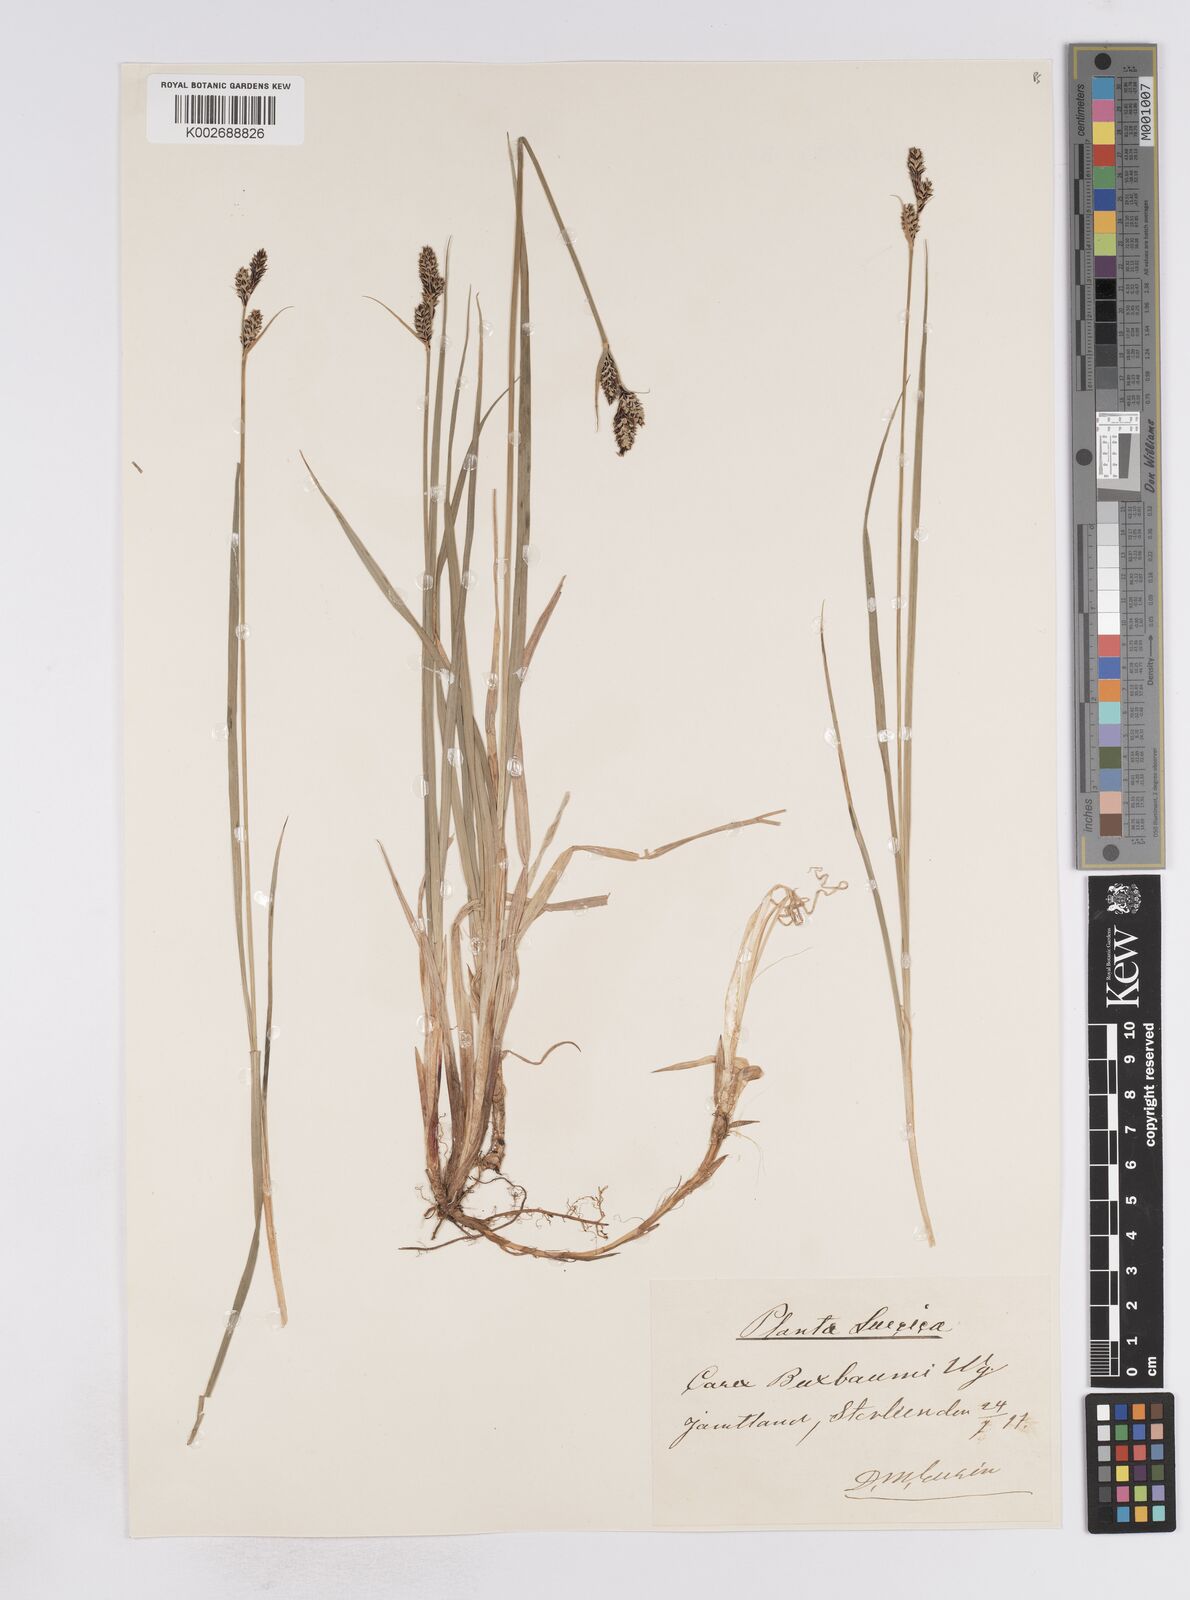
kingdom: Plantae
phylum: Tracheophyta
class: Liliopsida
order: Poales
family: Cyperaceae
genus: Carex
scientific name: Carex buxbaumii
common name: Club sedge
